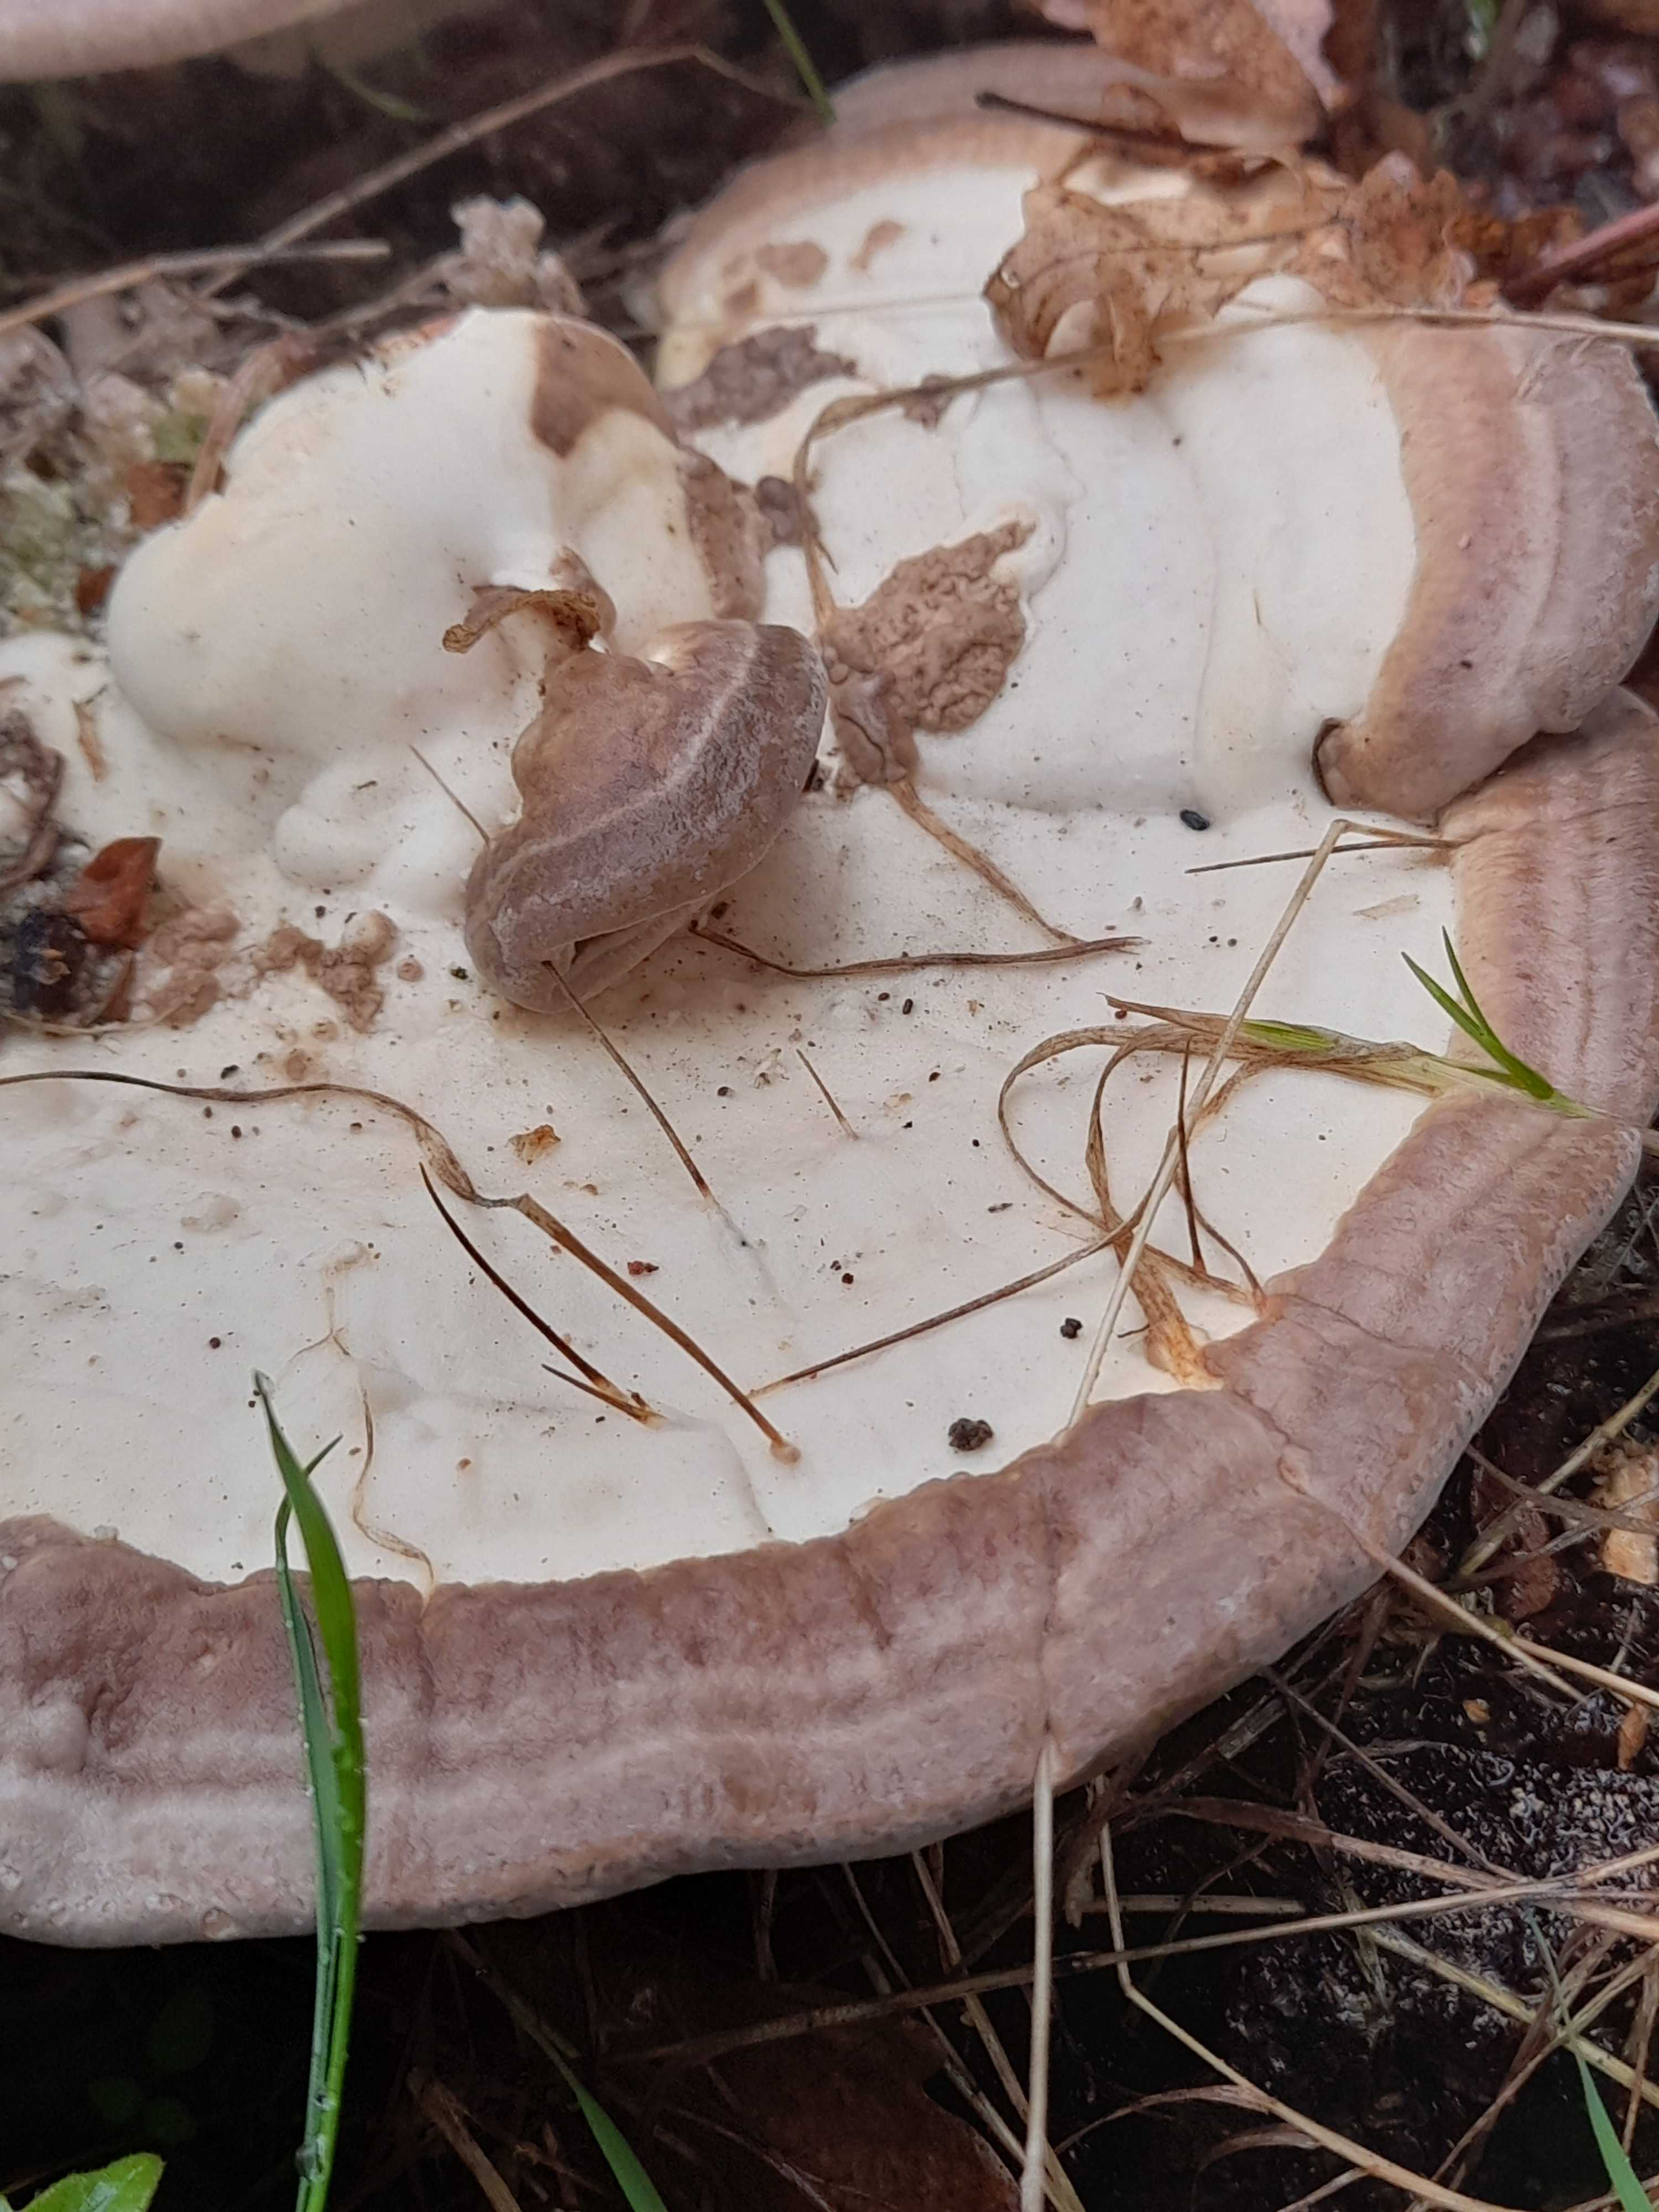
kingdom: Fungi
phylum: Basidiomycota
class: Agaricomycetes
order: Polyporales
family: Polyporaceae
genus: Trametes
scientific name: Trametes gibbosa
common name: puklet læderporesvamp
